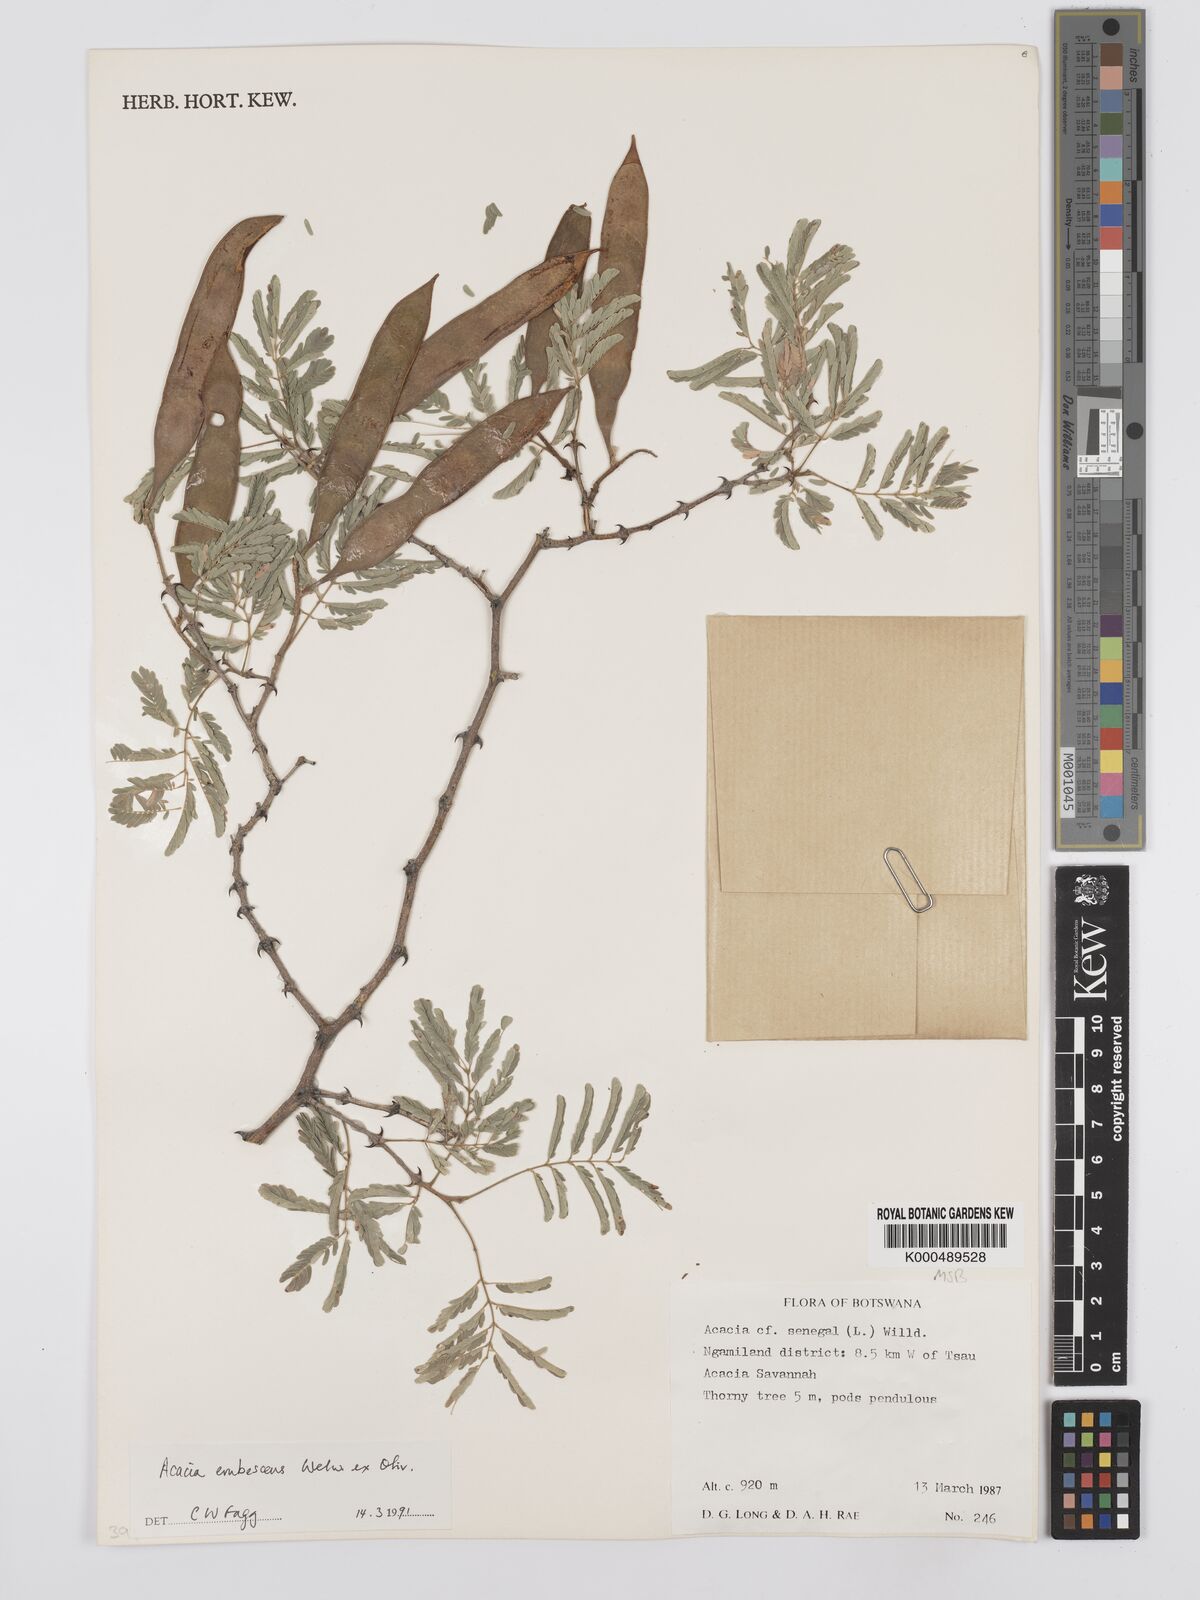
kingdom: Plantae
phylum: Tracheophyta
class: Magnoliopsida
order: Fabales
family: Fabaceae
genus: Senegalia
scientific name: Senegalia erubescens
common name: Bluethorn
